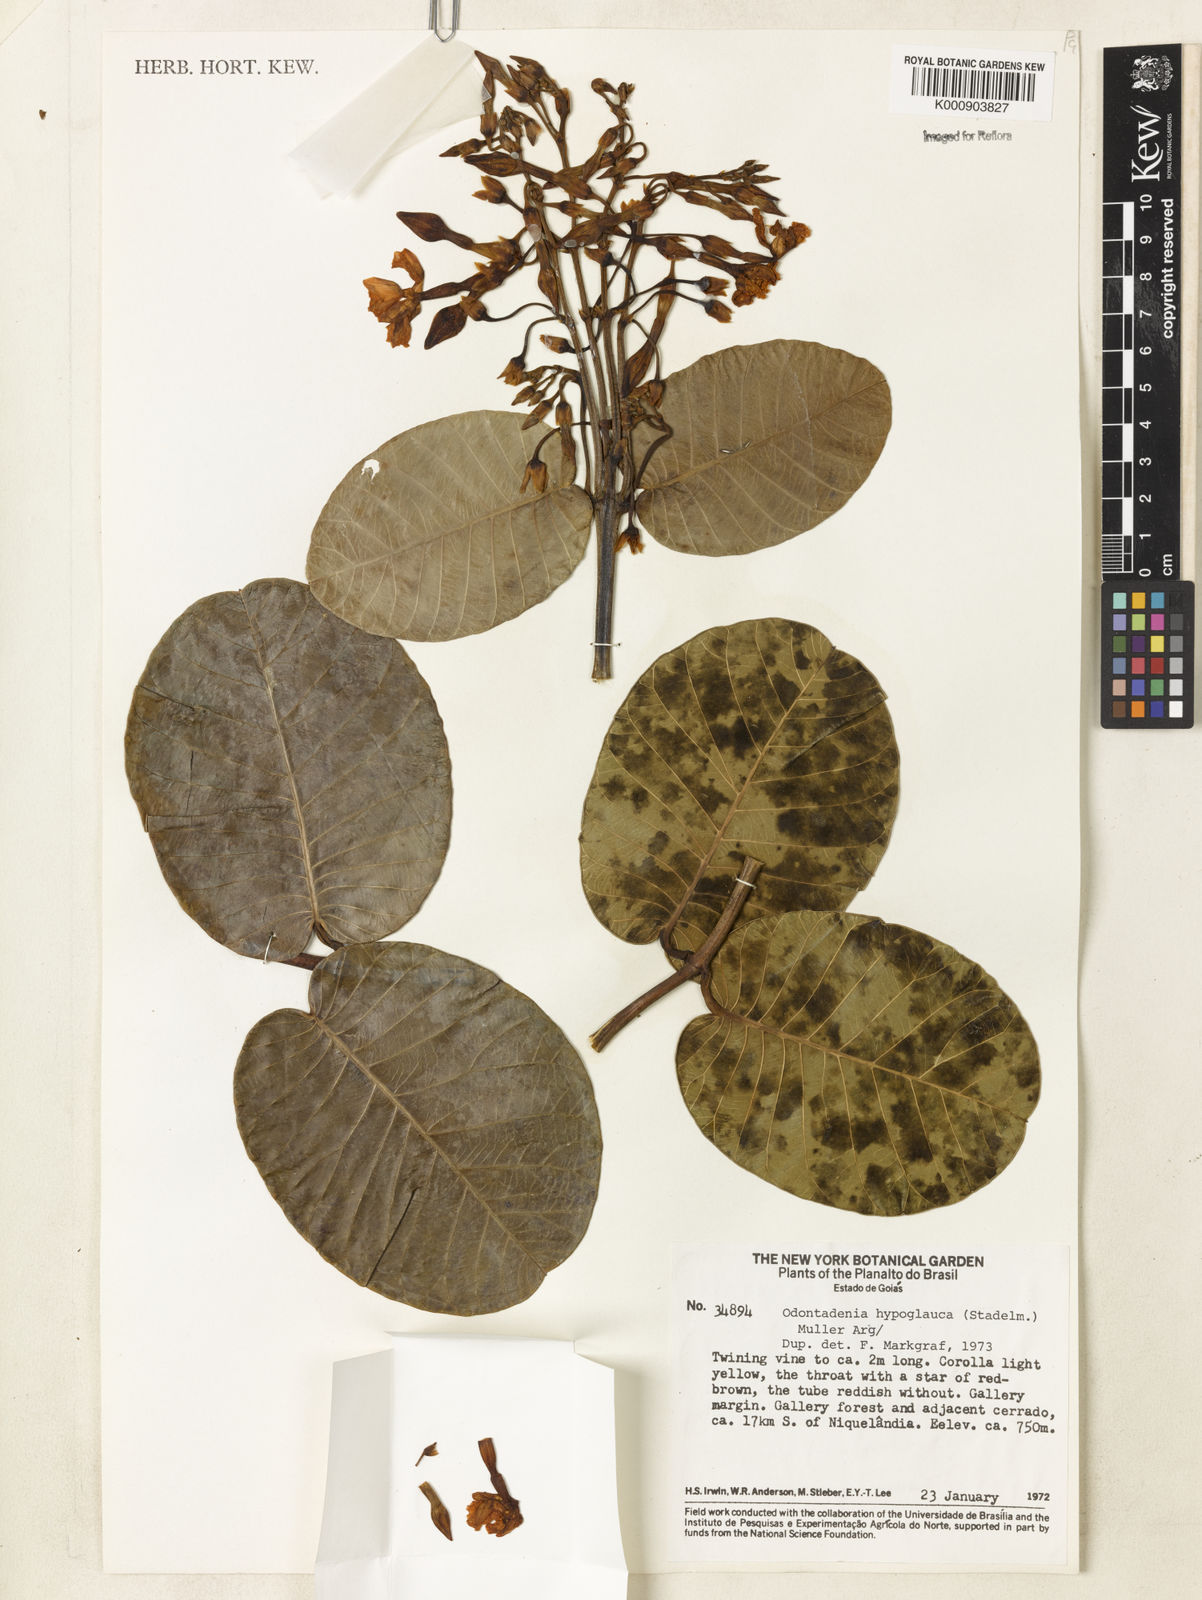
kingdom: Plantae
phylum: Tracheophyta
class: Magnoliopsida
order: Gentianales
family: Apocynaceae
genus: Odontadenia
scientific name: Odontadenia
